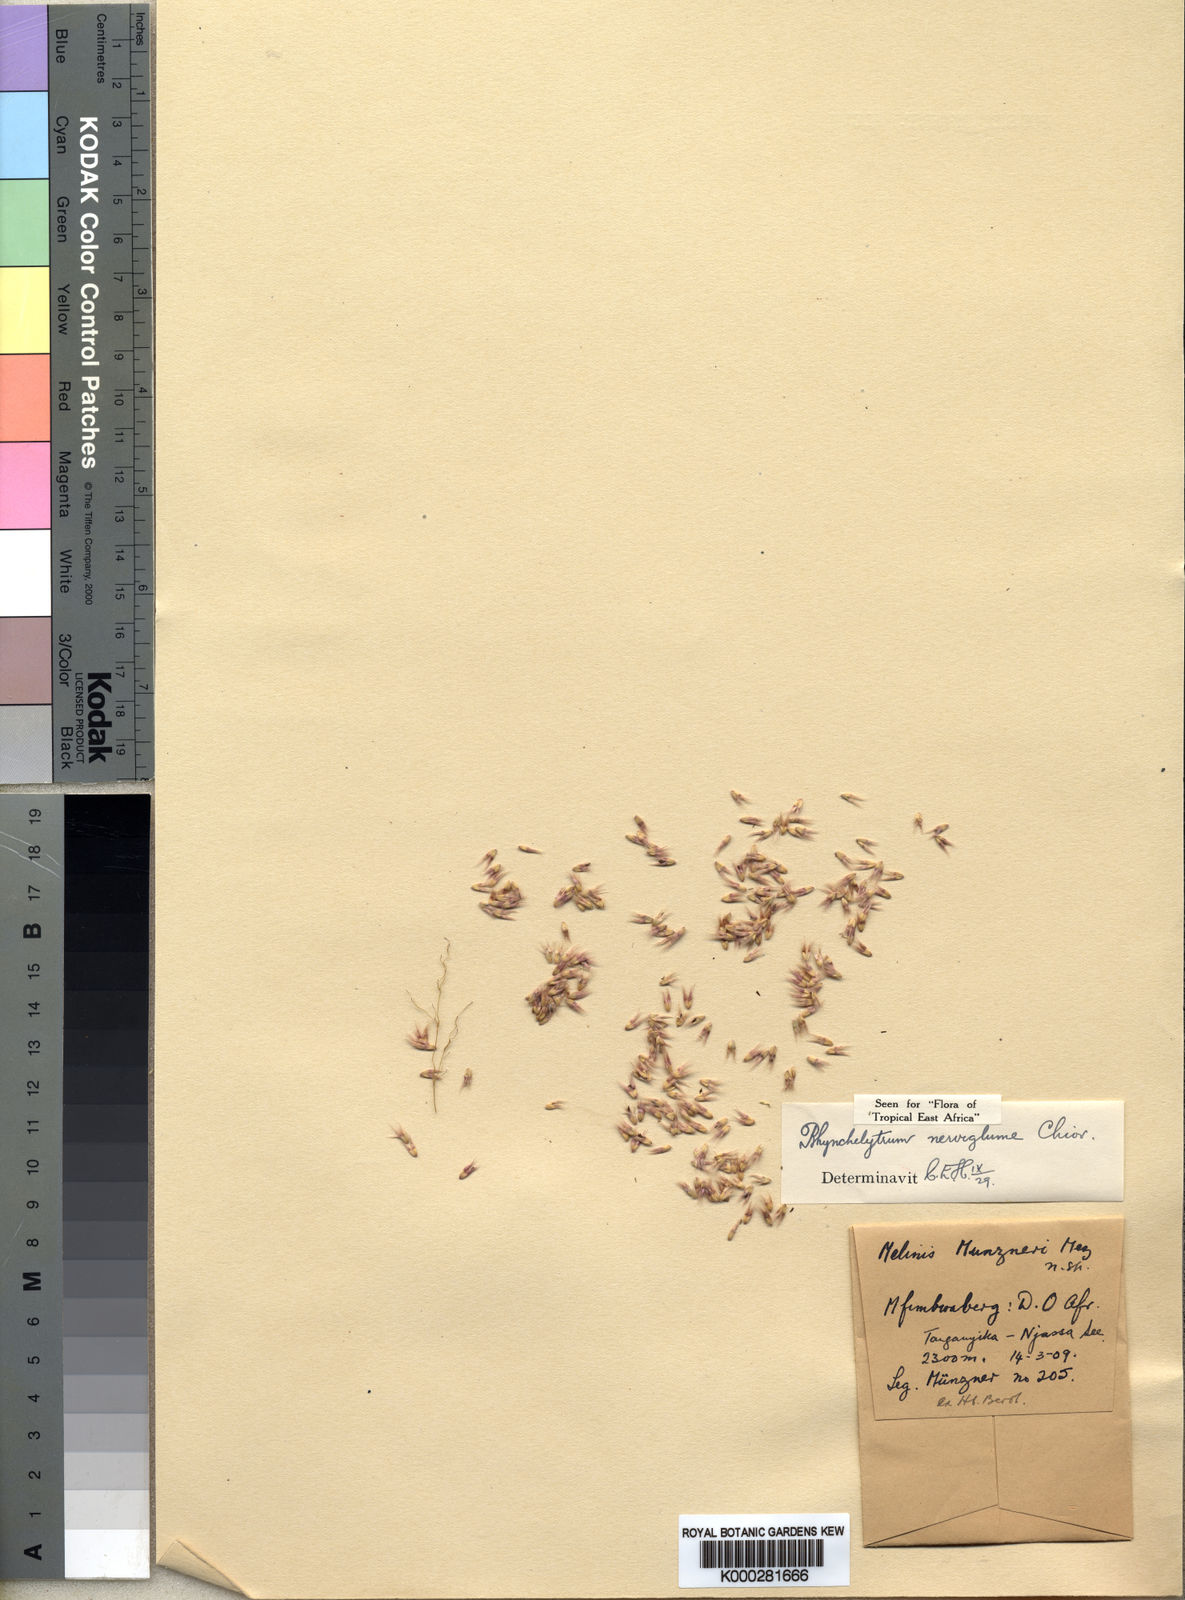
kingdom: Plantae
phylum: Tracheophyta
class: Liliopsida
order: Poales
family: Poaceae
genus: Melinis
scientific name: Melinis nerviglumis
